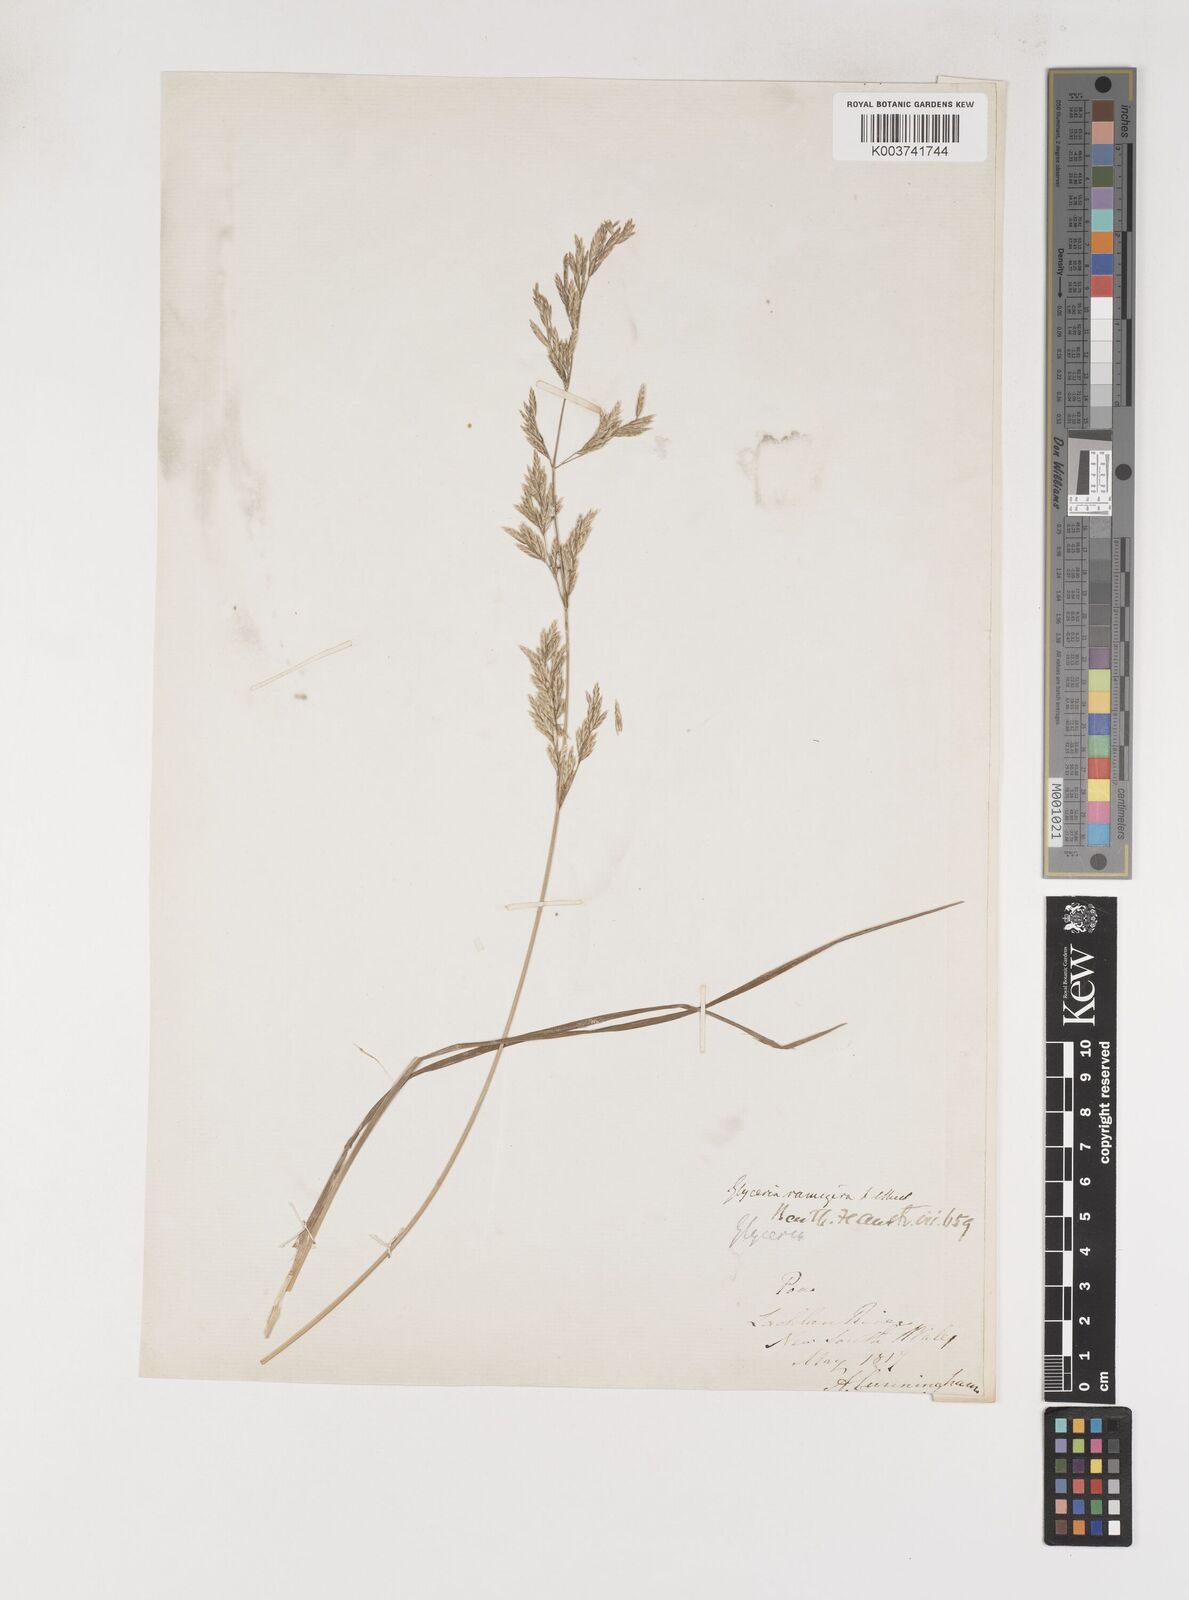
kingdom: Plantae
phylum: Tracheophyta
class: Liliopsida
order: Poales
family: Poaceae
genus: Poa
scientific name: Poa fordeana
